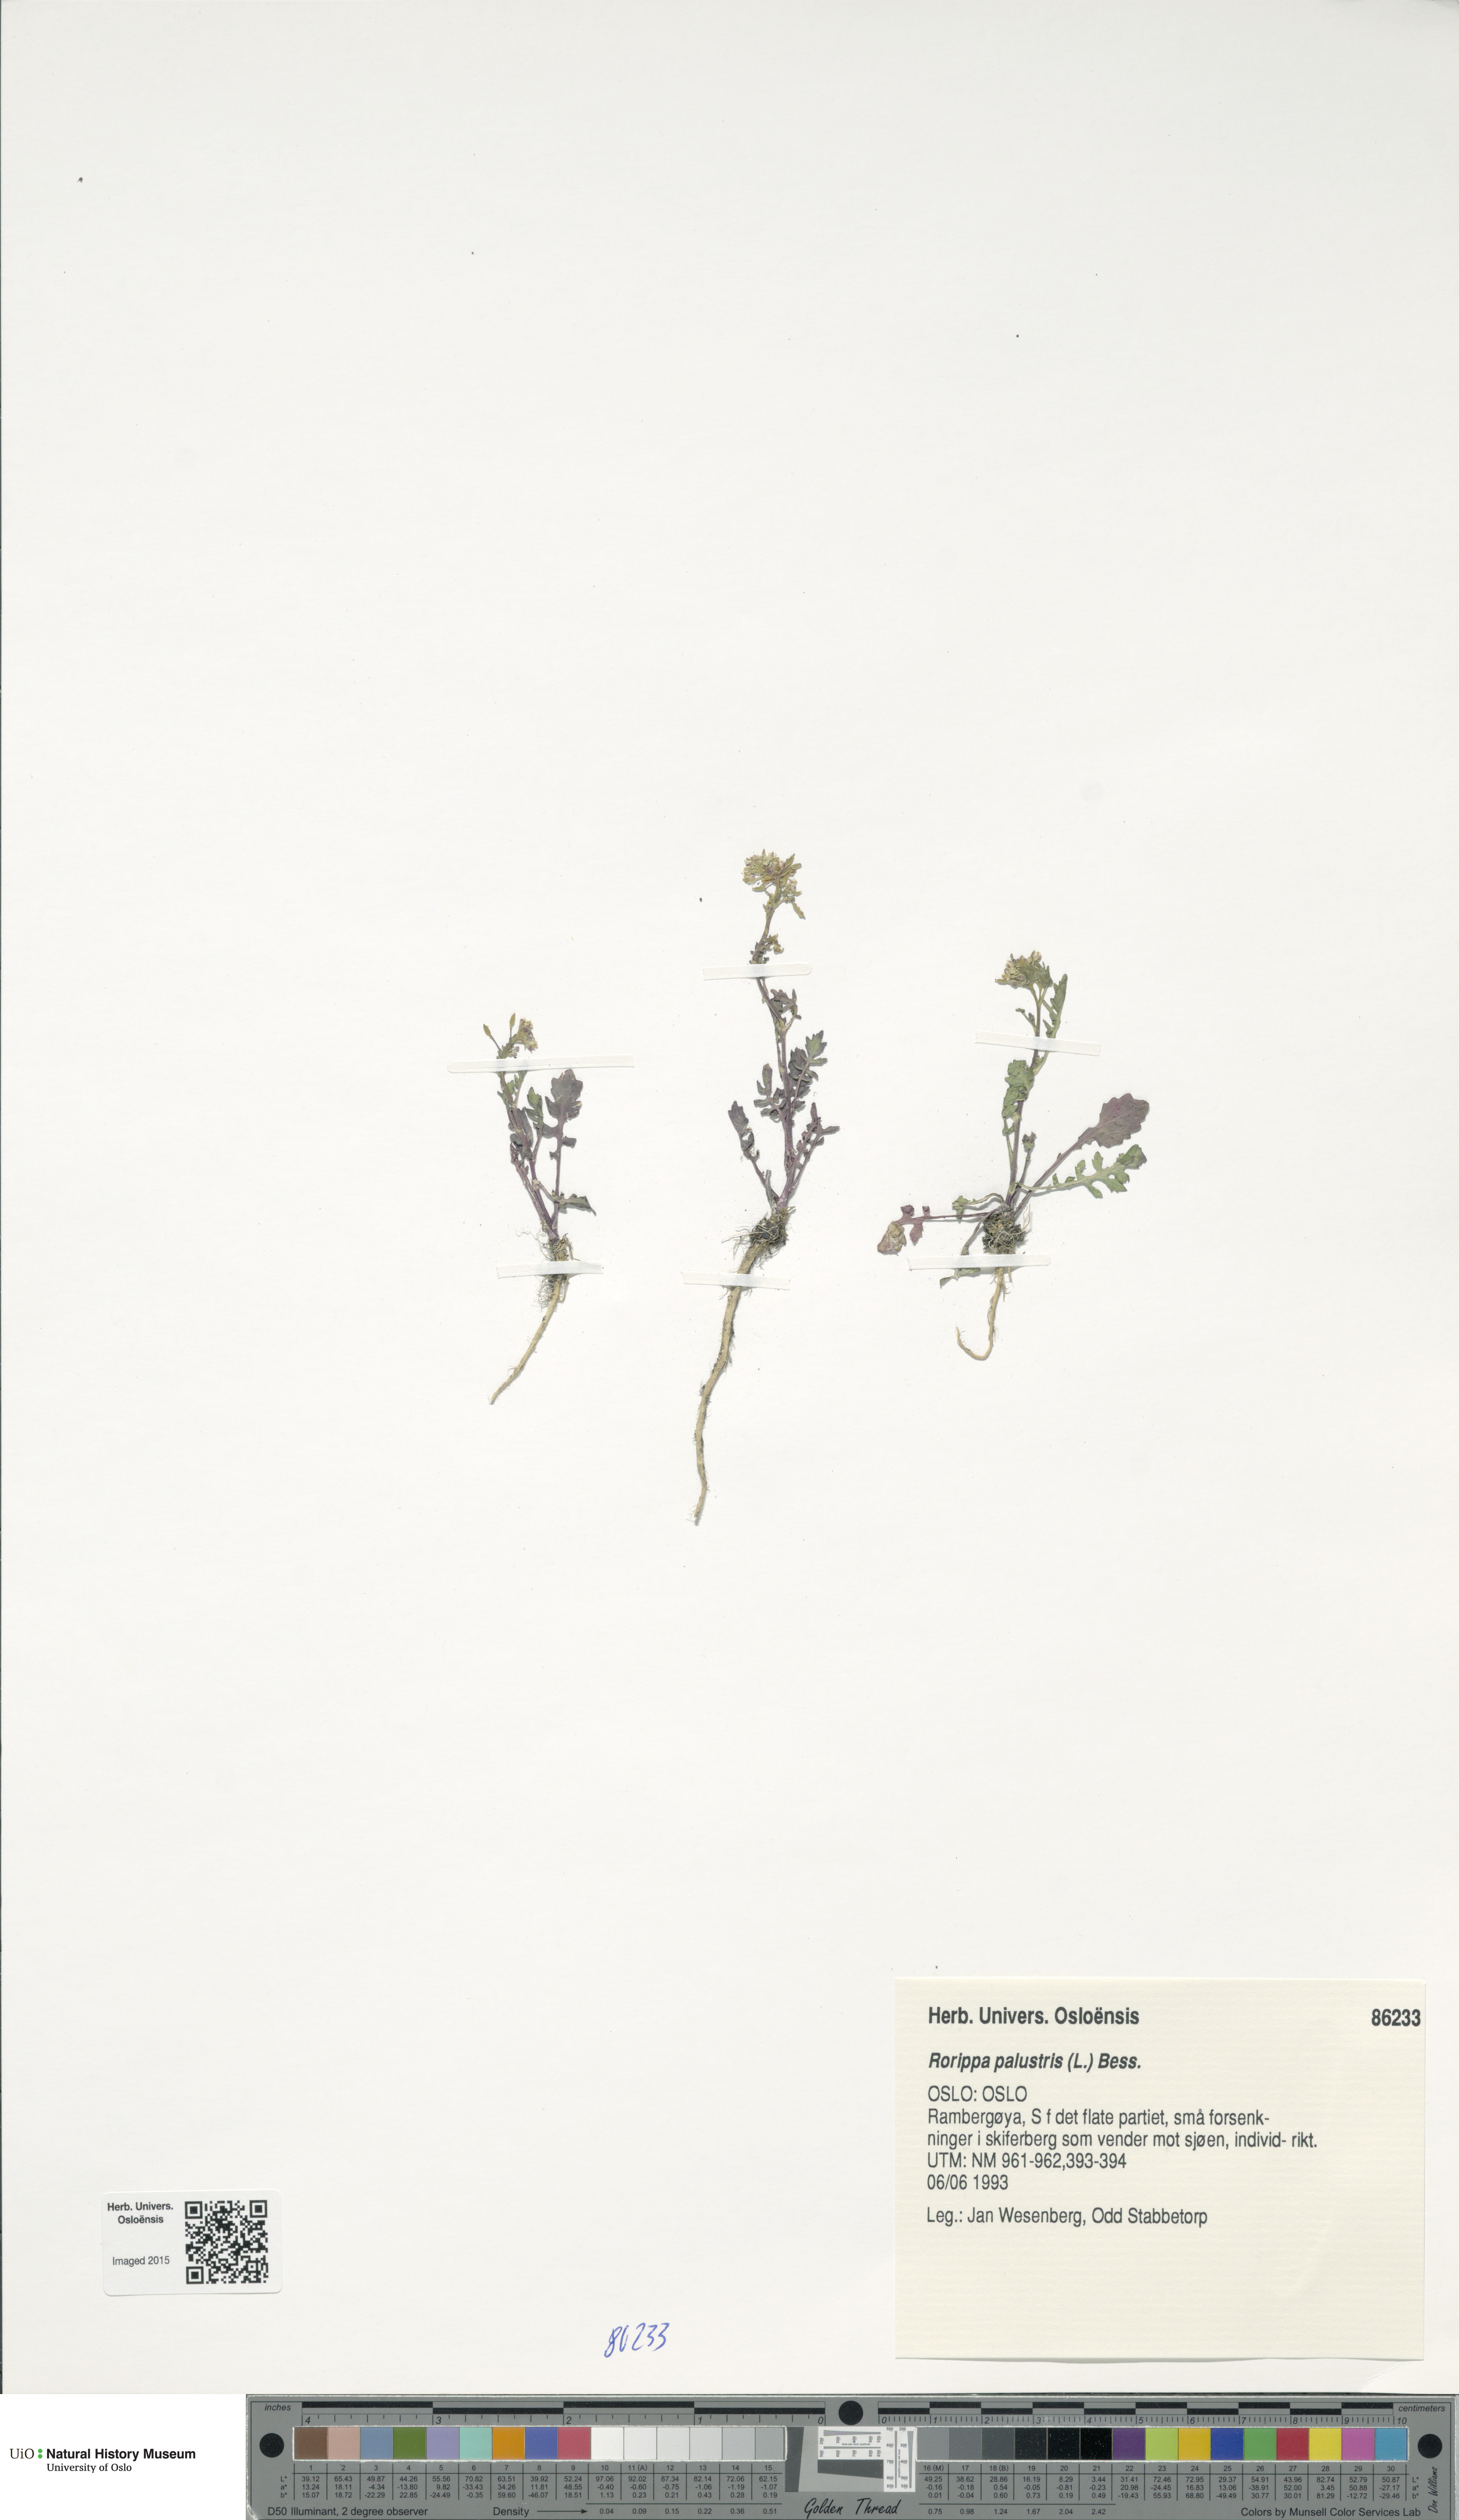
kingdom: Plantae
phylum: Tracheophyta
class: Magnoliopsida
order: Brassicales
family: Brassicaceae
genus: Rorippa
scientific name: Rorippa palustris
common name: Marsh yellow-cress
